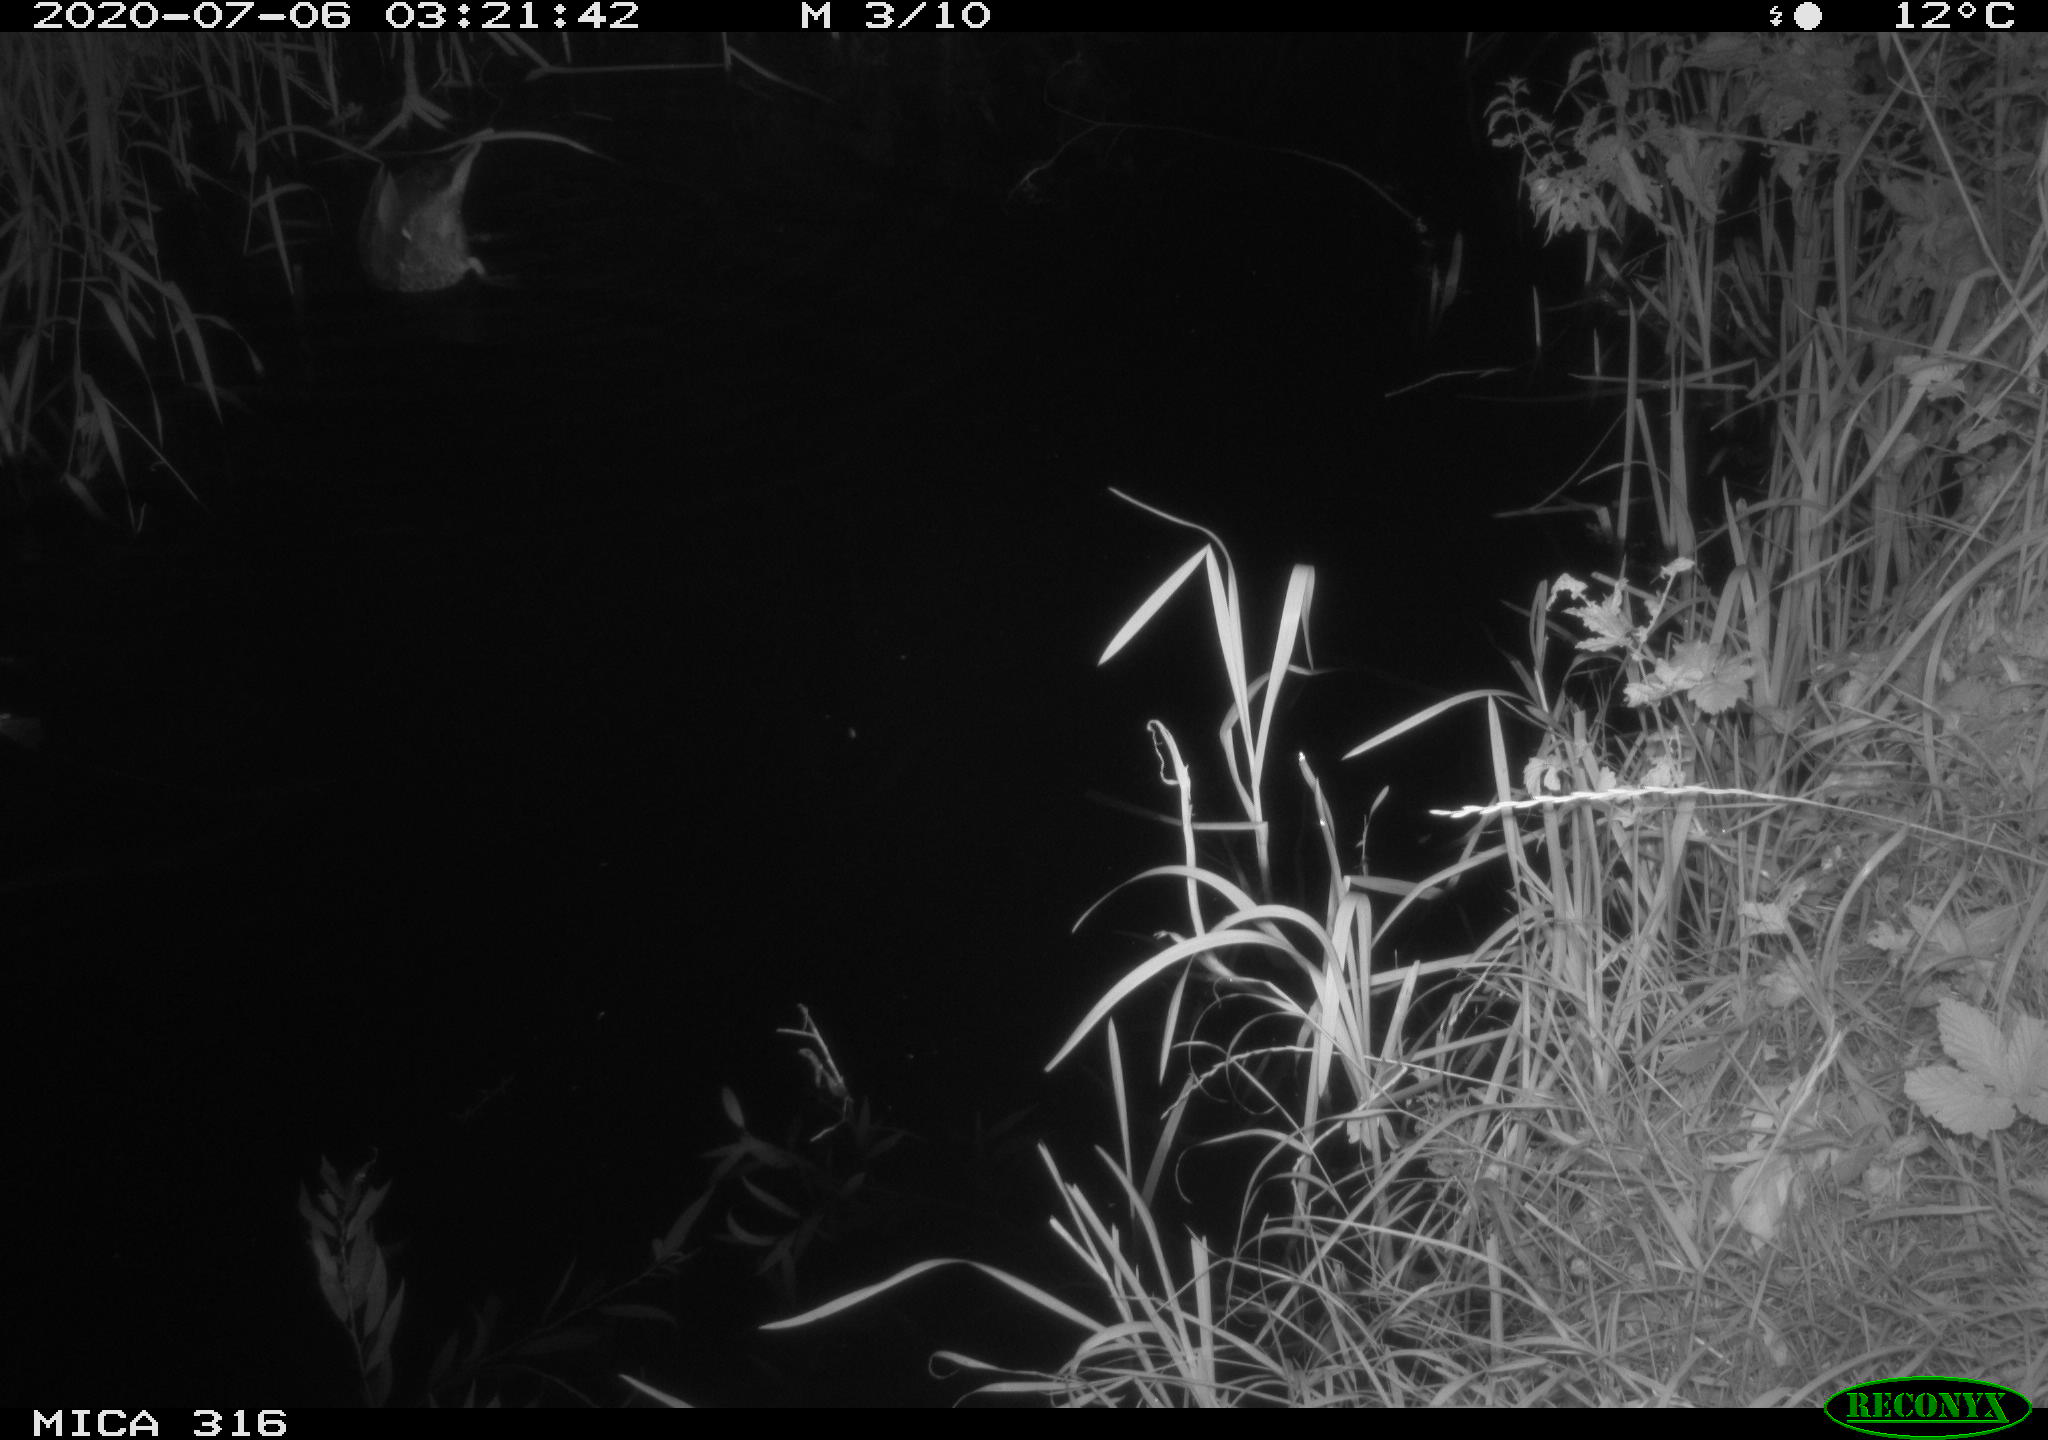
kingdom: Animalia
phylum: Chordata
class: Aves
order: Anseriformes
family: Anatidae
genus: Anas
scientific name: Anas platyrhynchos
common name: Mallard
